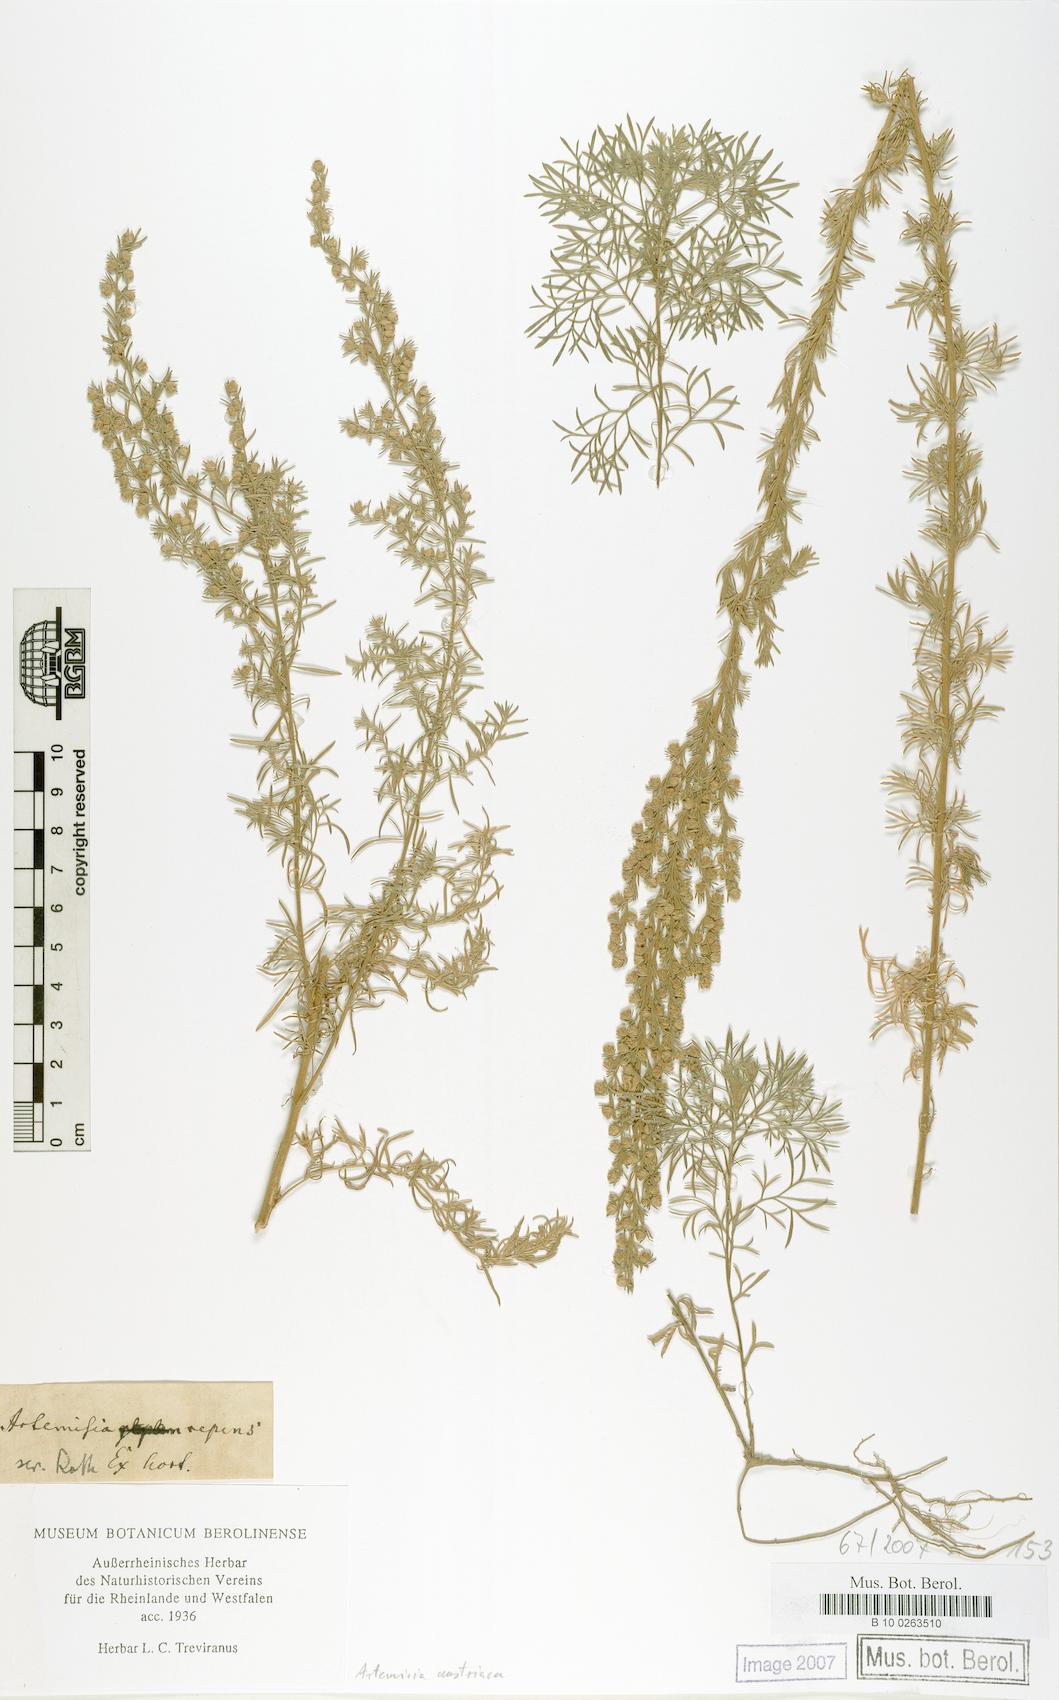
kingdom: Plantae
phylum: Tracheophyta
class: Magnoliopsida
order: Asterales
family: Asteraceae
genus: Artemisia
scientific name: Artemisia austriaca
